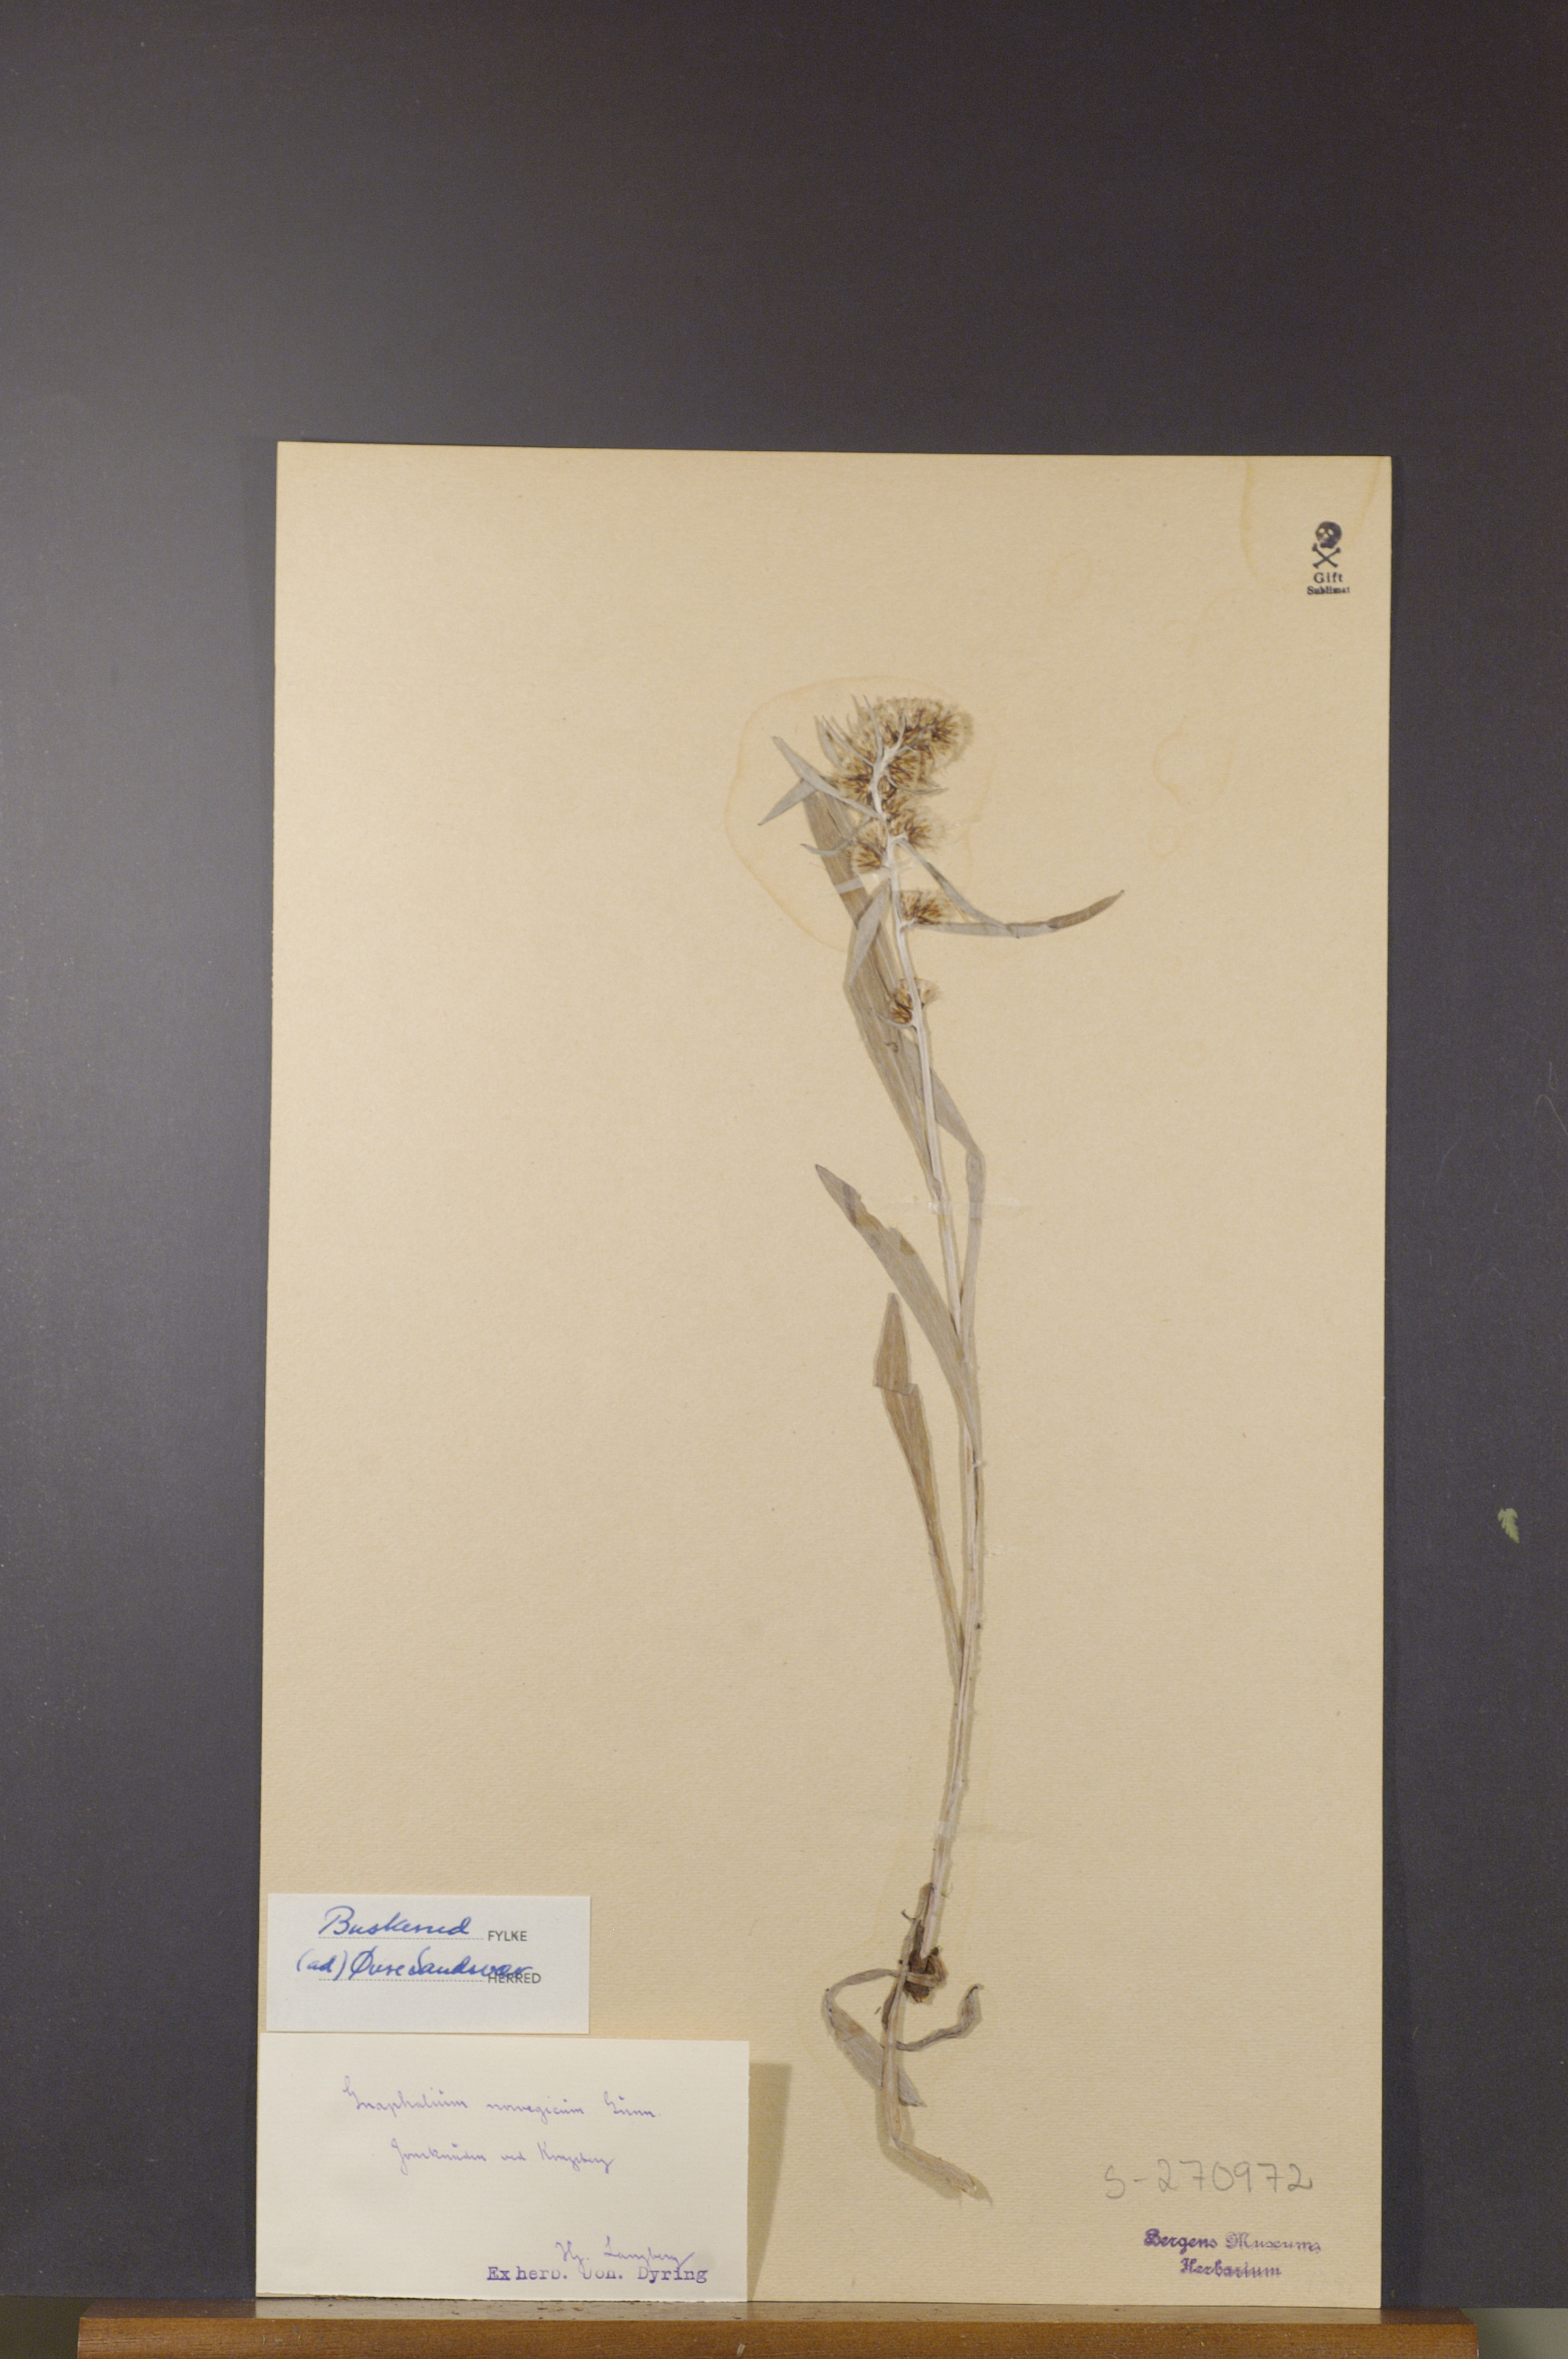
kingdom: Plantae
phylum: Tracheophyta
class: Magnoliopsida
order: Asterales
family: Asteraceae
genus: Omalotheca
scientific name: Omalotheca norvegica
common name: Norwegian arctic-cudweed
